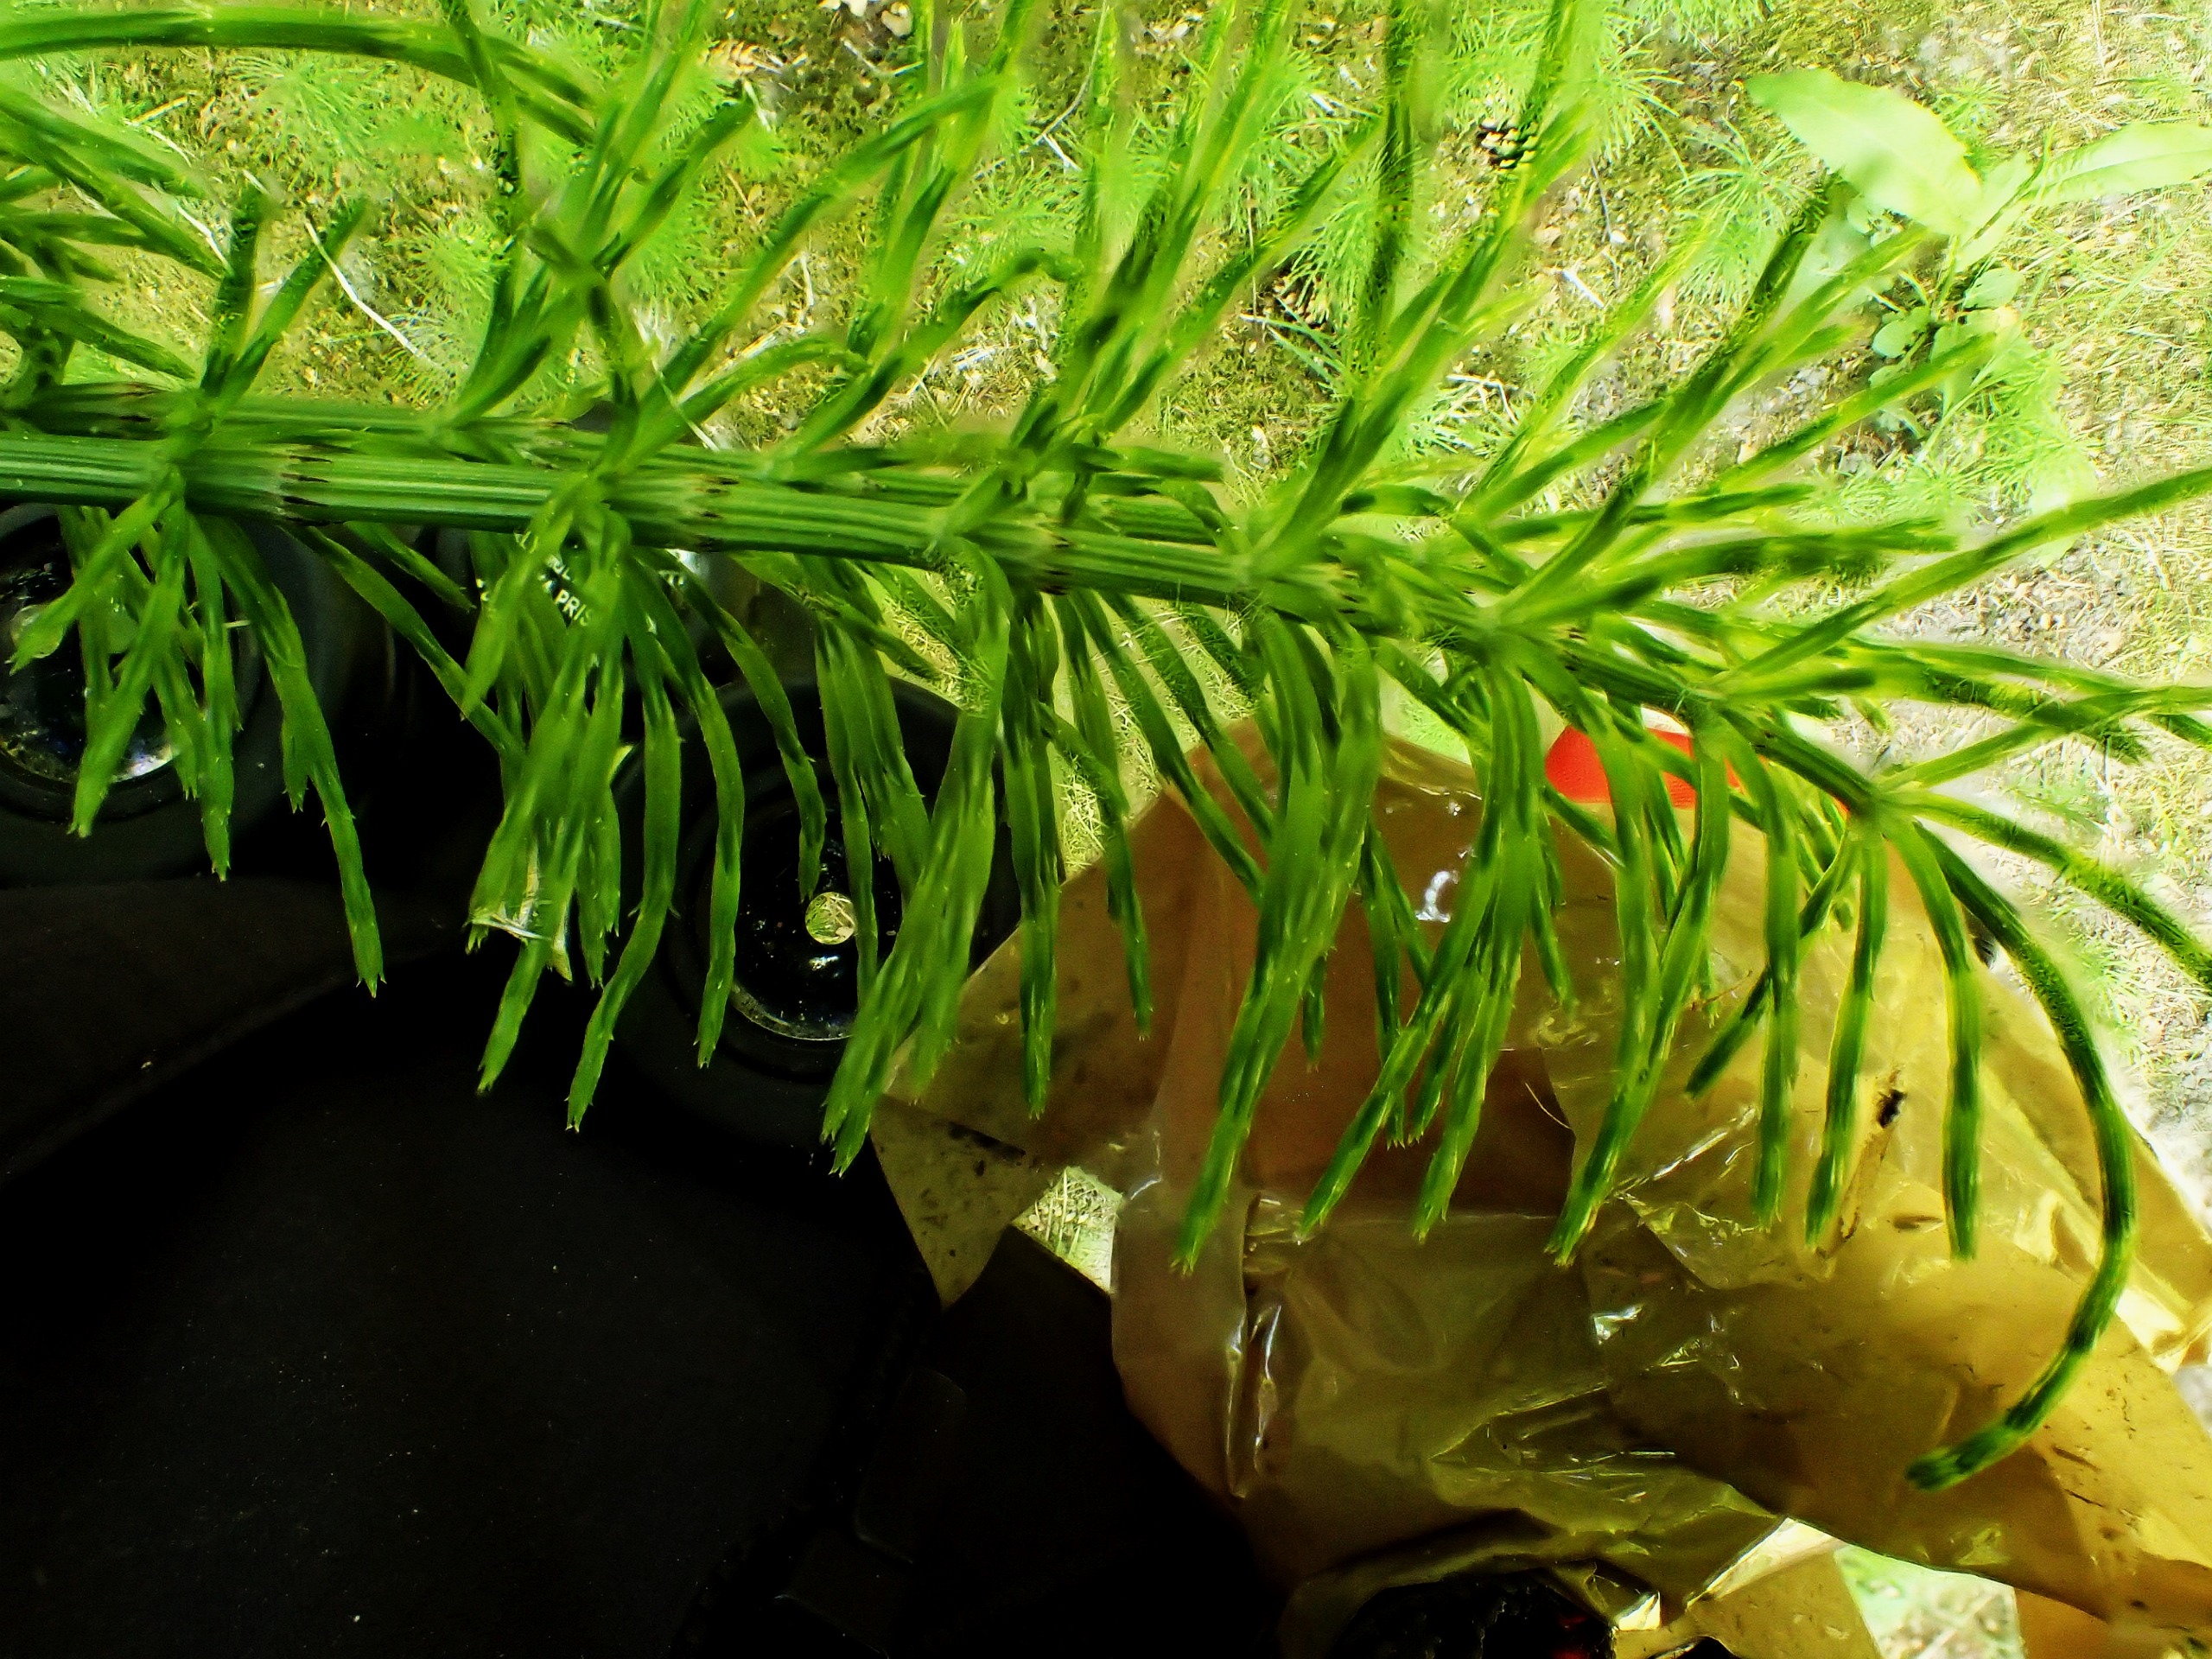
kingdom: Plantae
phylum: Tracheophyta
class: Polypodiopsida
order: Equisetales
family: Equisetaceae
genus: Equisetum
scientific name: Equisetum arvense
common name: Ager-padderok
